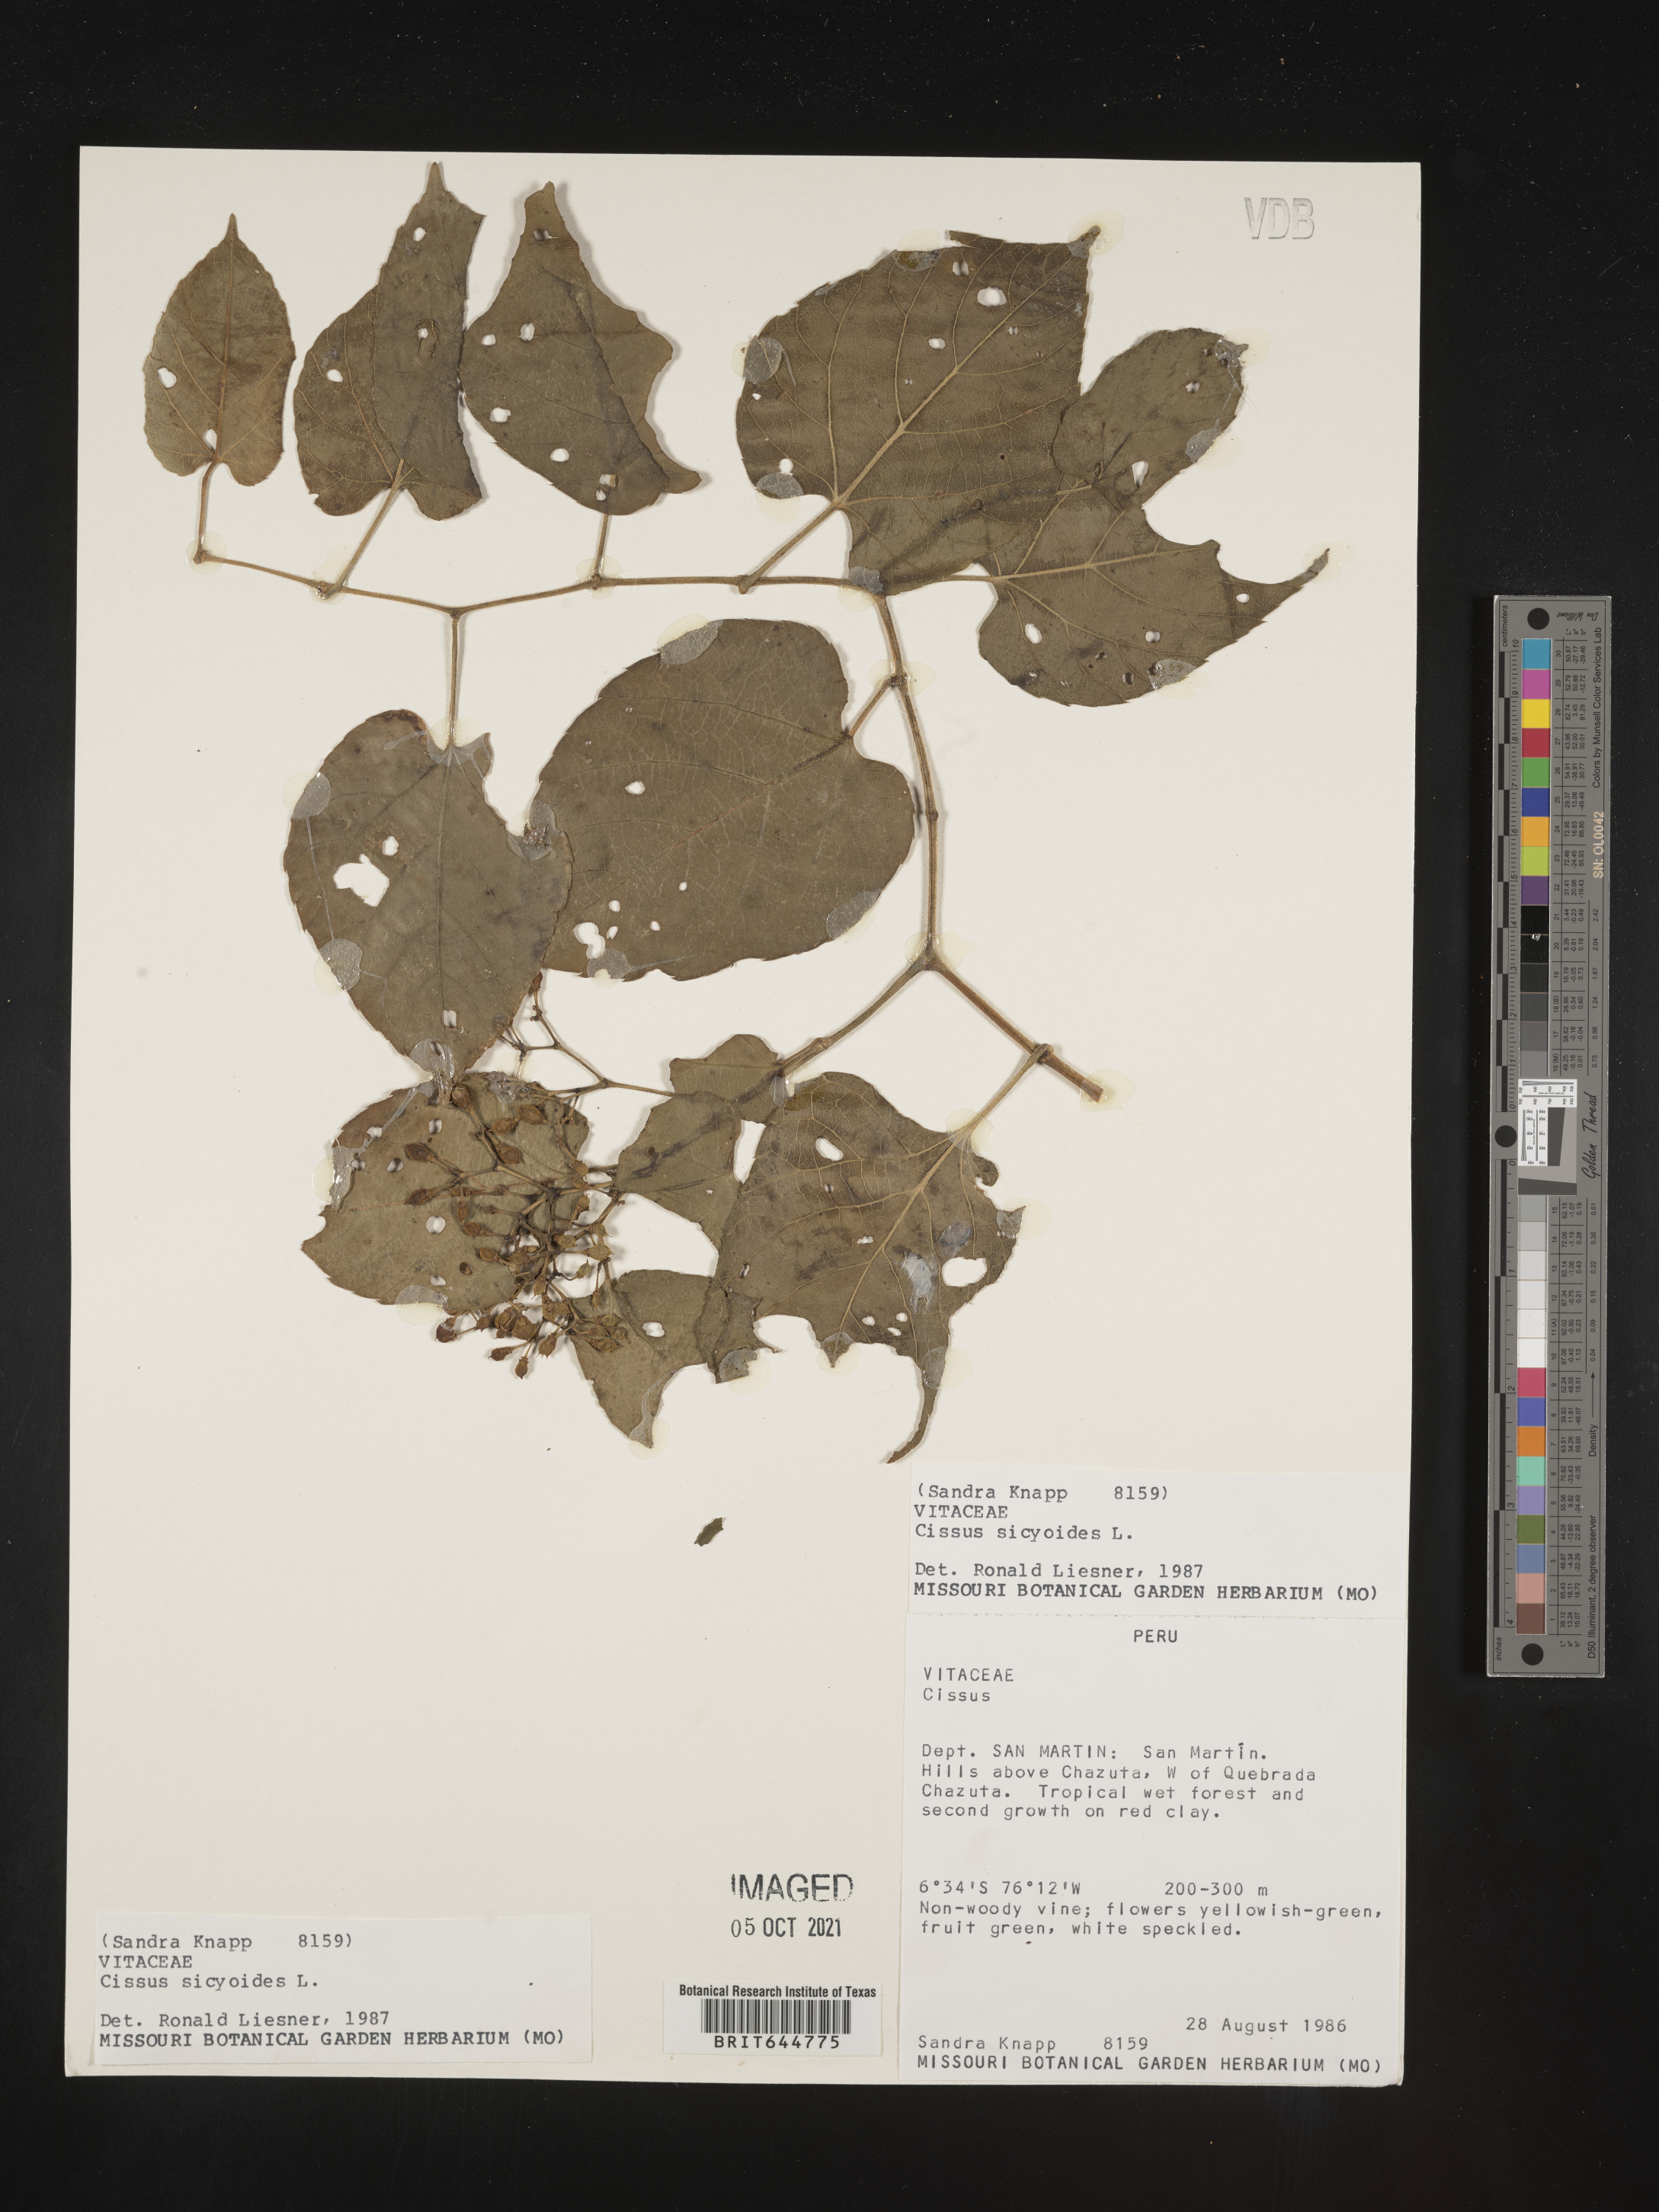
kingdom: Plantae
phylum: Tracheophyta
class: Magnoliopsida
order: Vitales
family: Vitaceae
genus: Cissus
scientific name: Cissus
